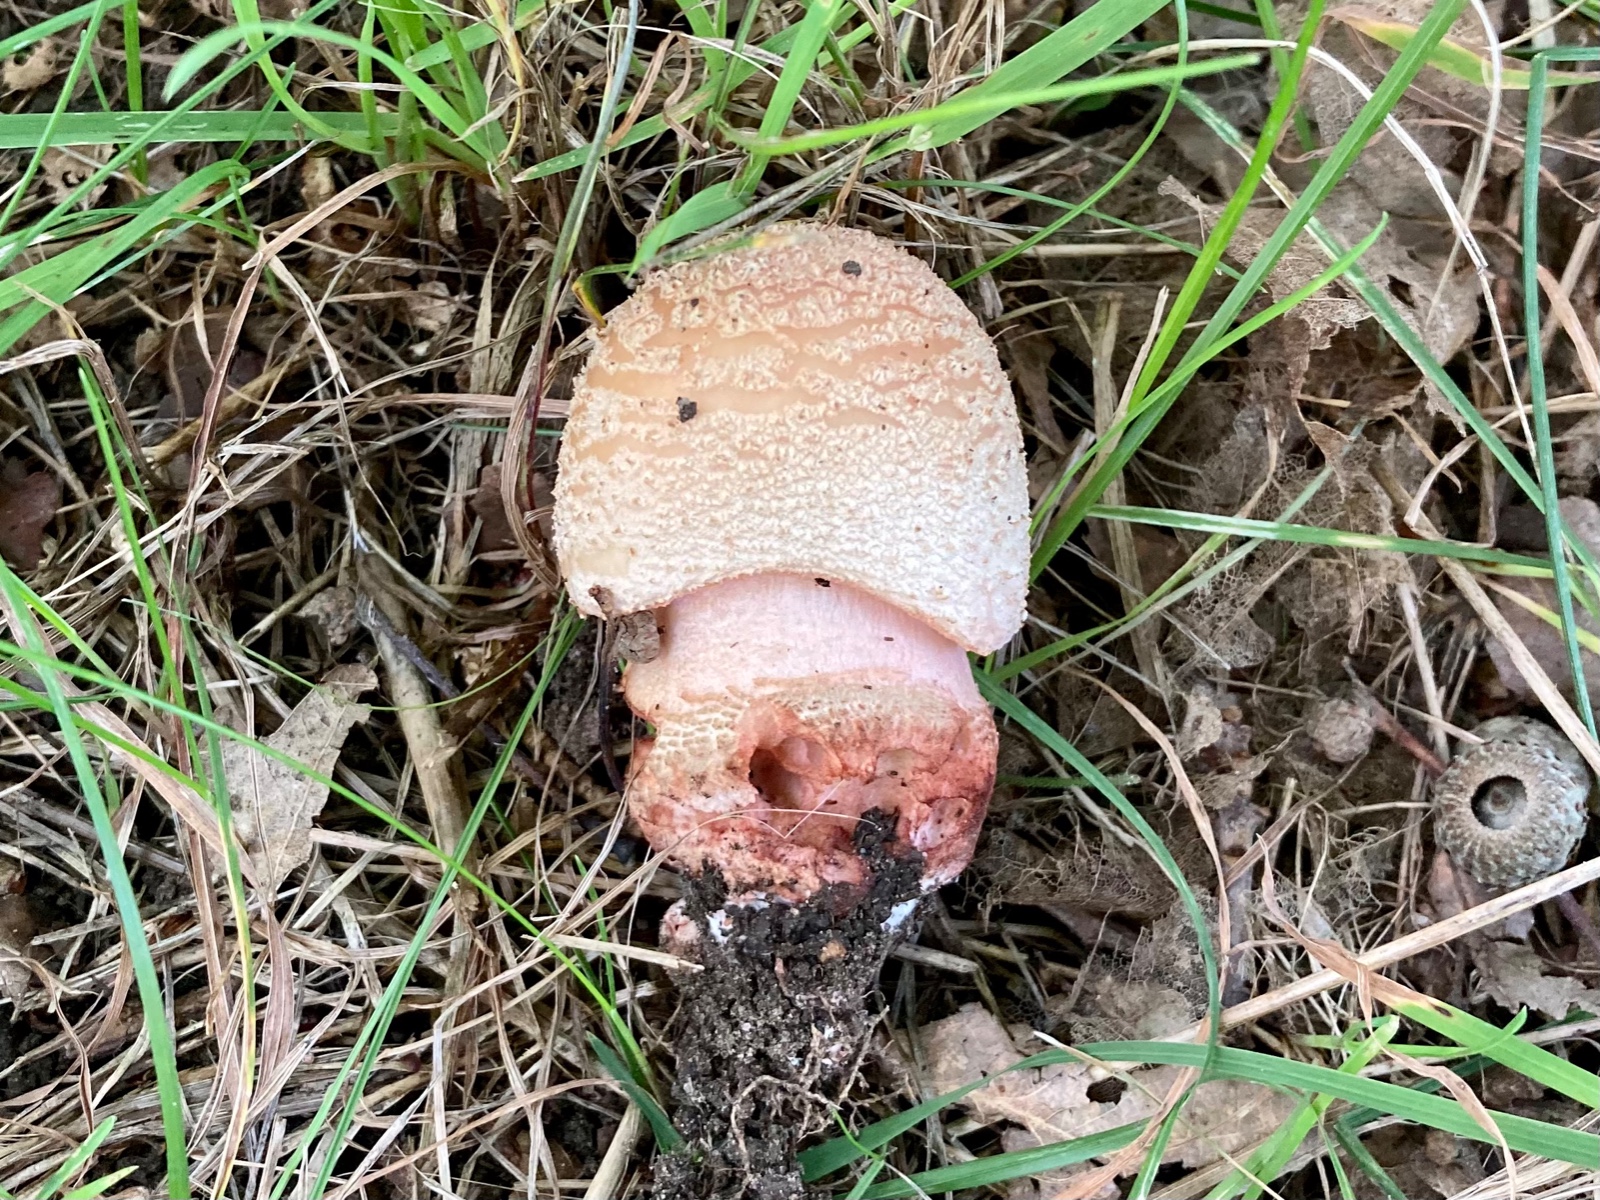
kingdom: Fungi
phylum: Basidiomycota
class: Agaricomycetes
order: Agaricales
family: Amanitaceae
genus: Amanita
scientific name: Amanita rubescens
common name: rødmende fluesvamp
